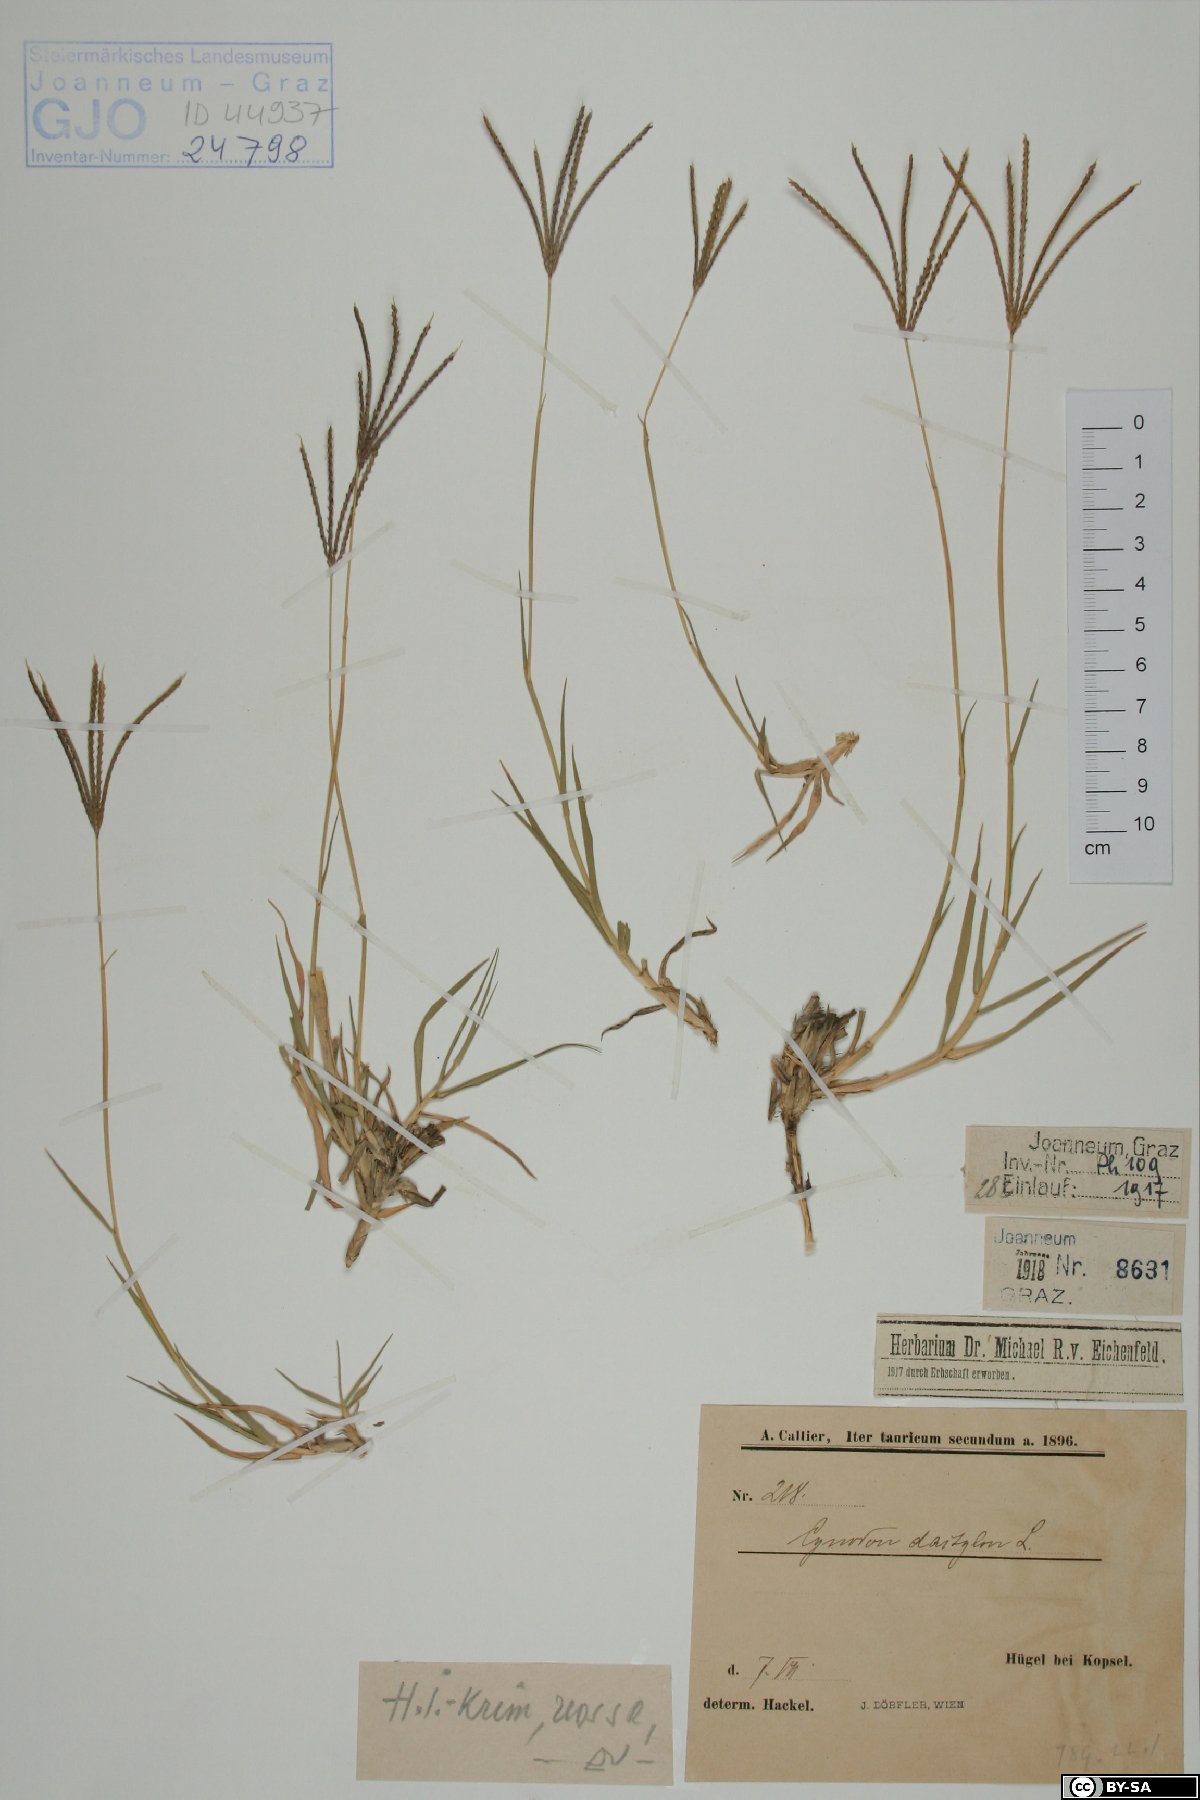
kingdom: Plantae
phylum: Tracheophyta
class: Liliopsida
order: Poales
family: Poaceae
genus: Cynodon
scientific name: Cynodon dactylon
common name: Bermuda grass
